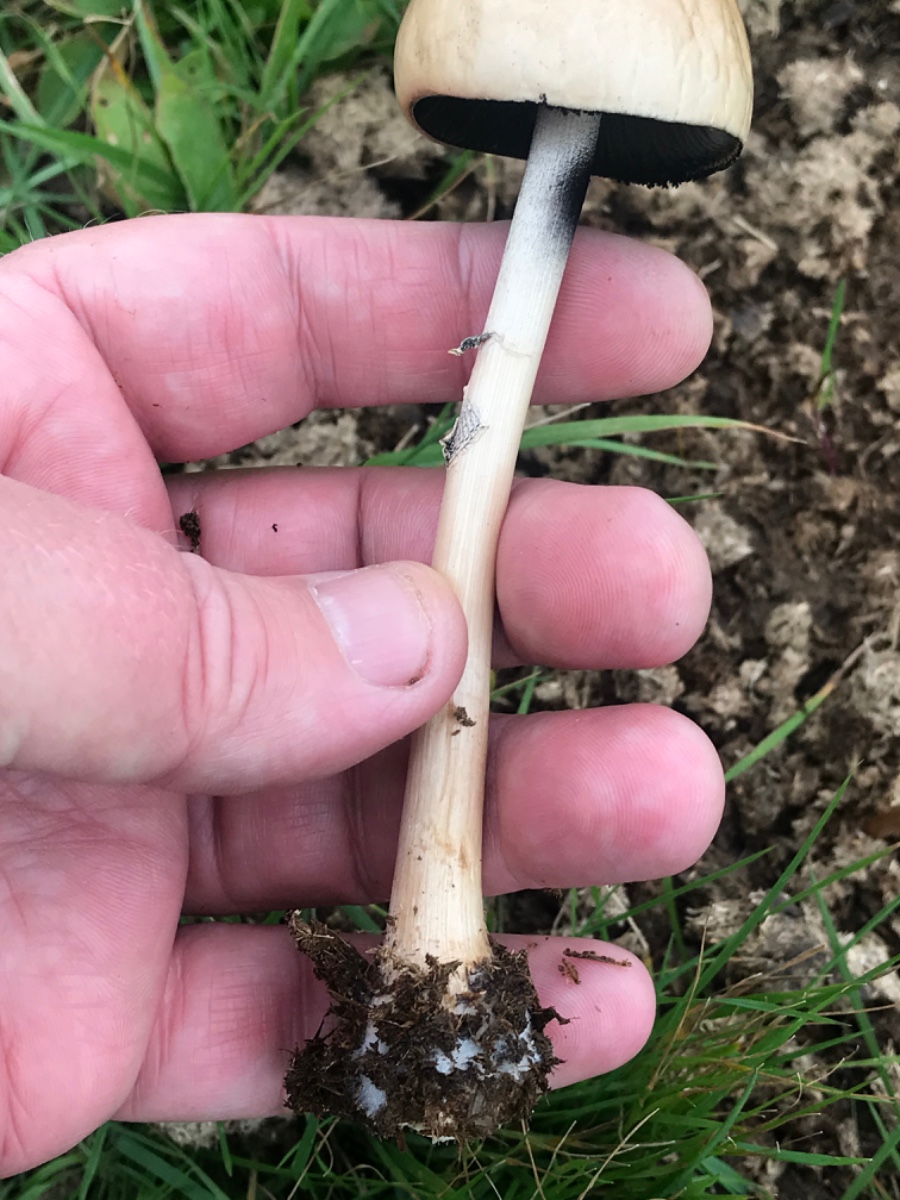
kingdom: Fungi
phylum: Basidiomycota
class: Agaricomycetes
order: Agaricales
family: Bolbitiaceae
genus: Panaeolus
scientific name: Panaeolus semiovatus
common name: ring-glanshat
